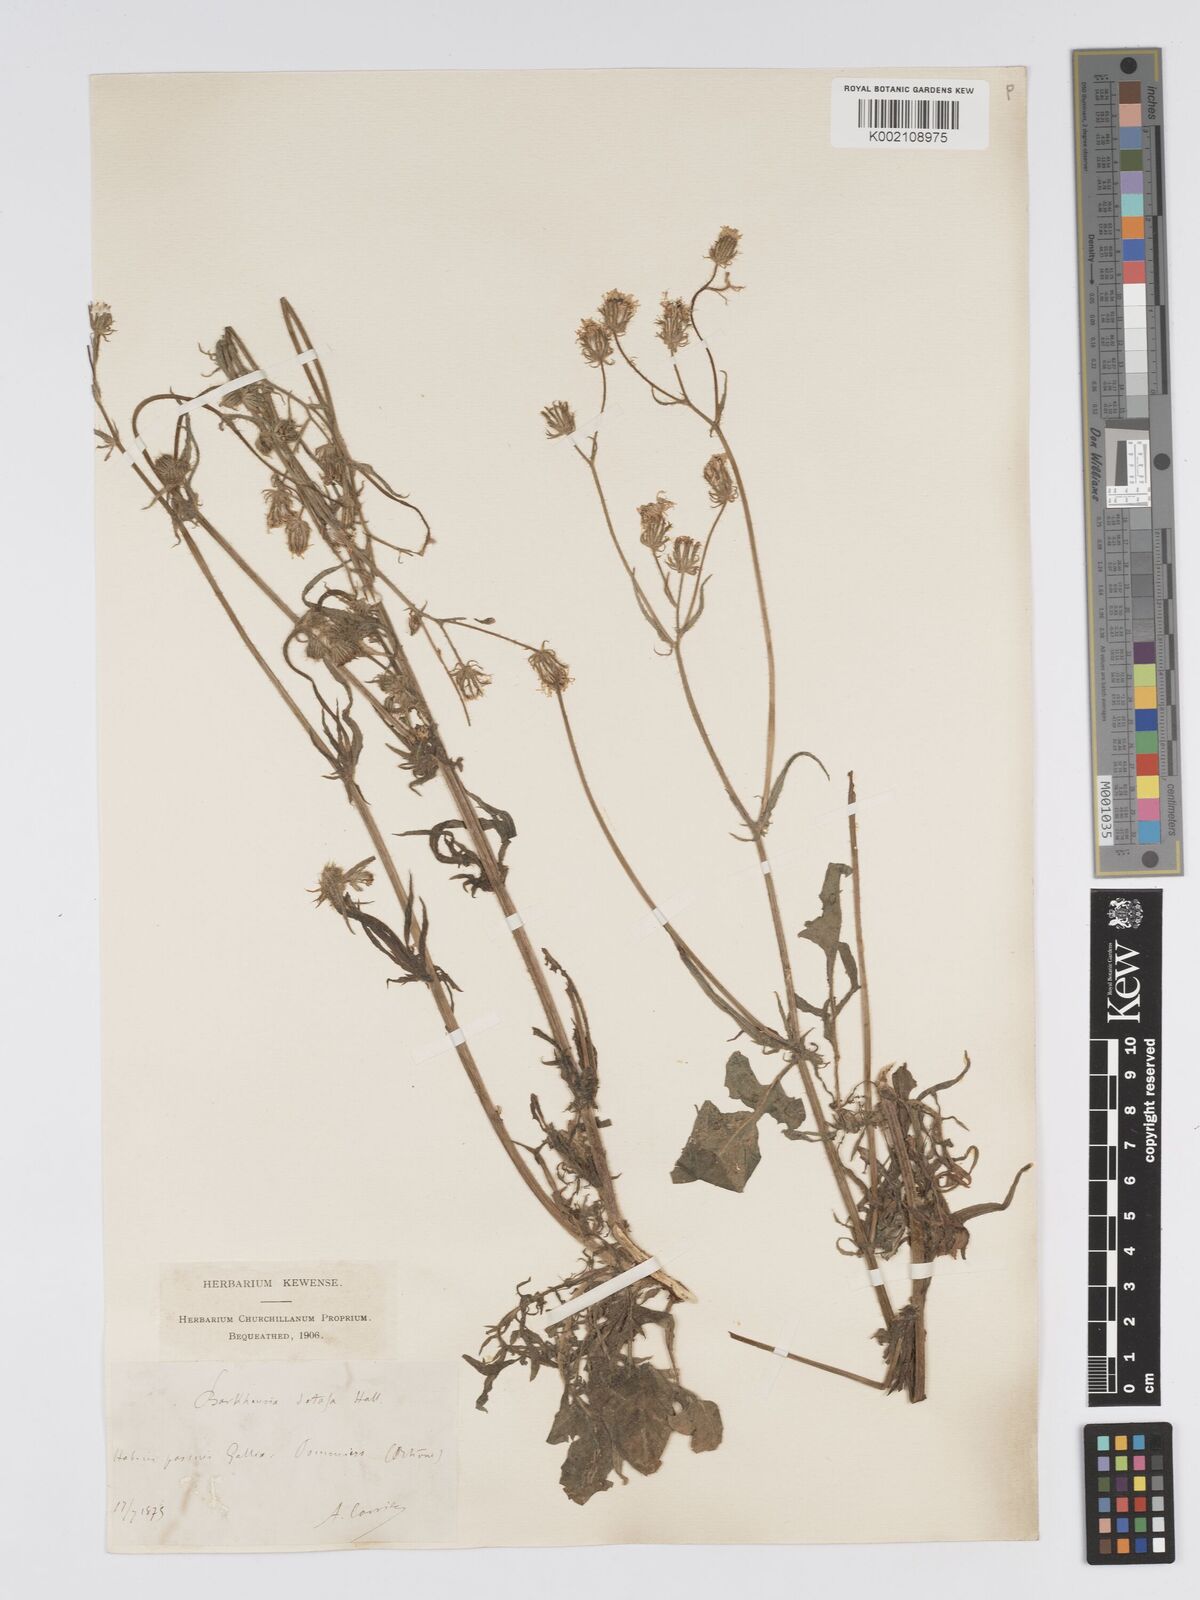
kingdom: Plantae
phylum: Tracheophyta
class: Magnoliopsida
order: Asterales
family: Asteraceae
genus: Crepis
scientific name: Crepis setosa
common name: Bristly hawk's-beard
